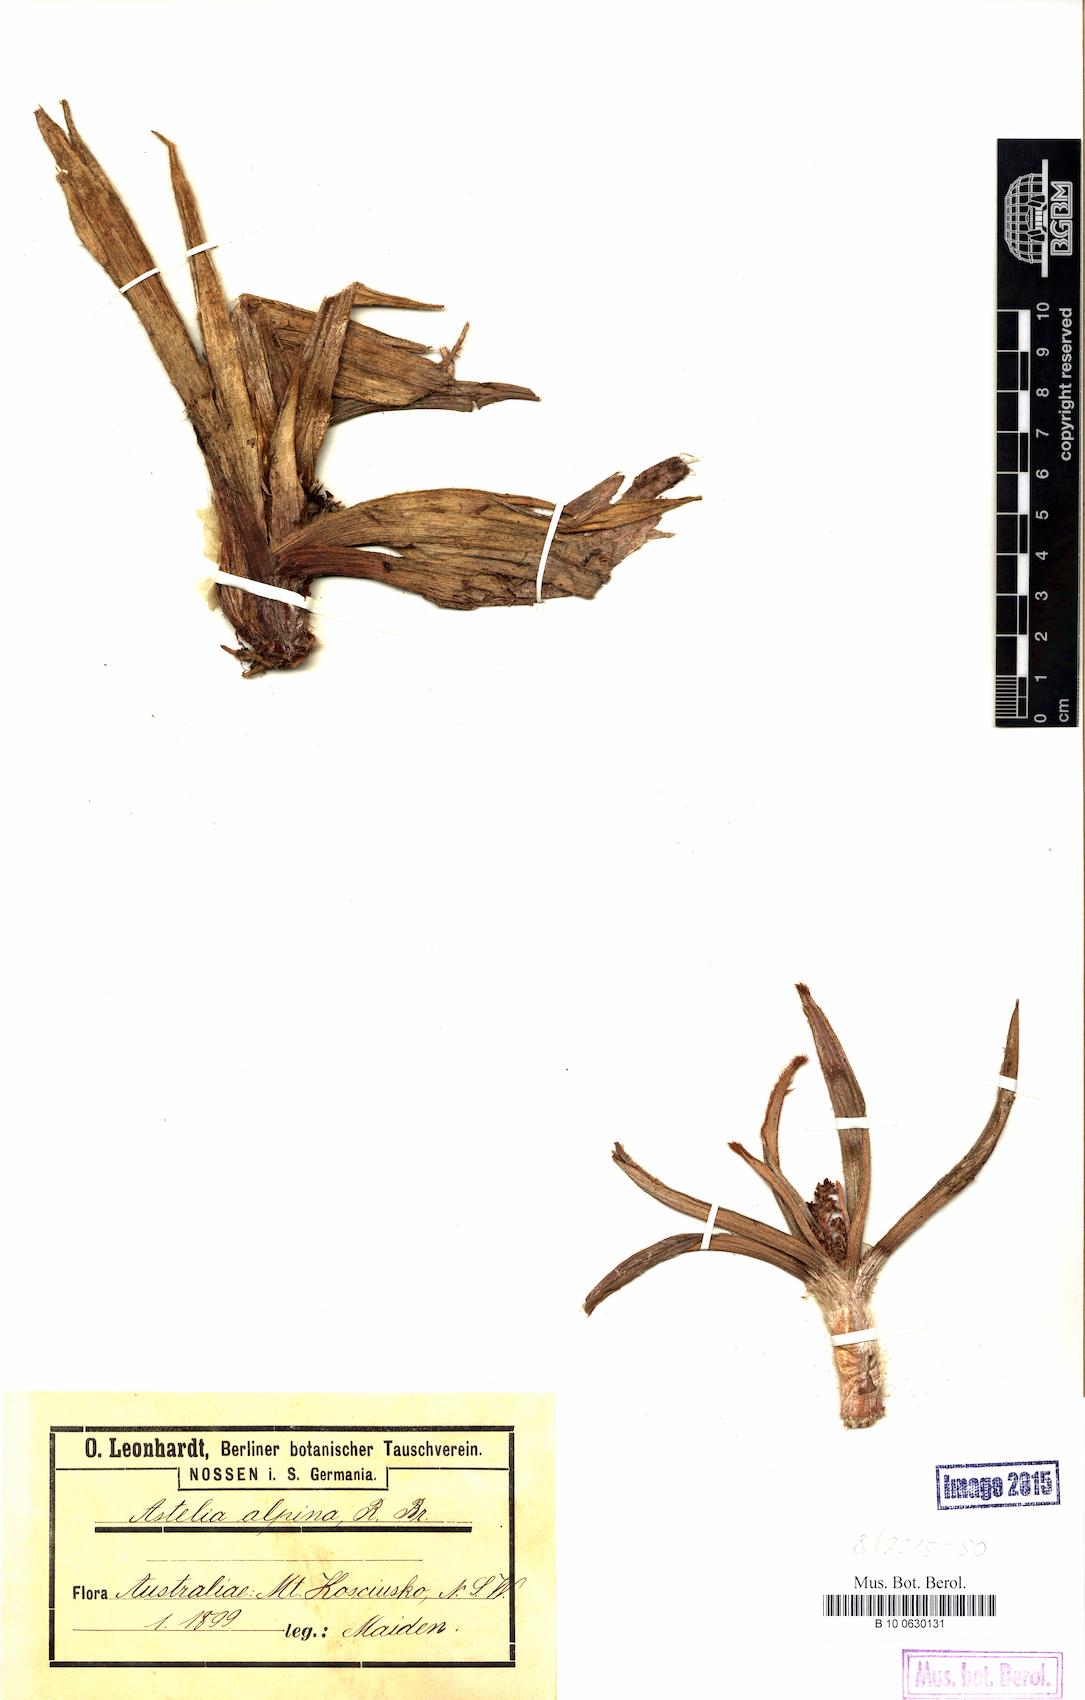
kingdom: Plantae
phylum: Tracheophyta
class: Liliopsida
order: Asparagales
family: Asteliaceae
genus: Astelia
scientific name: Astelia alpina
